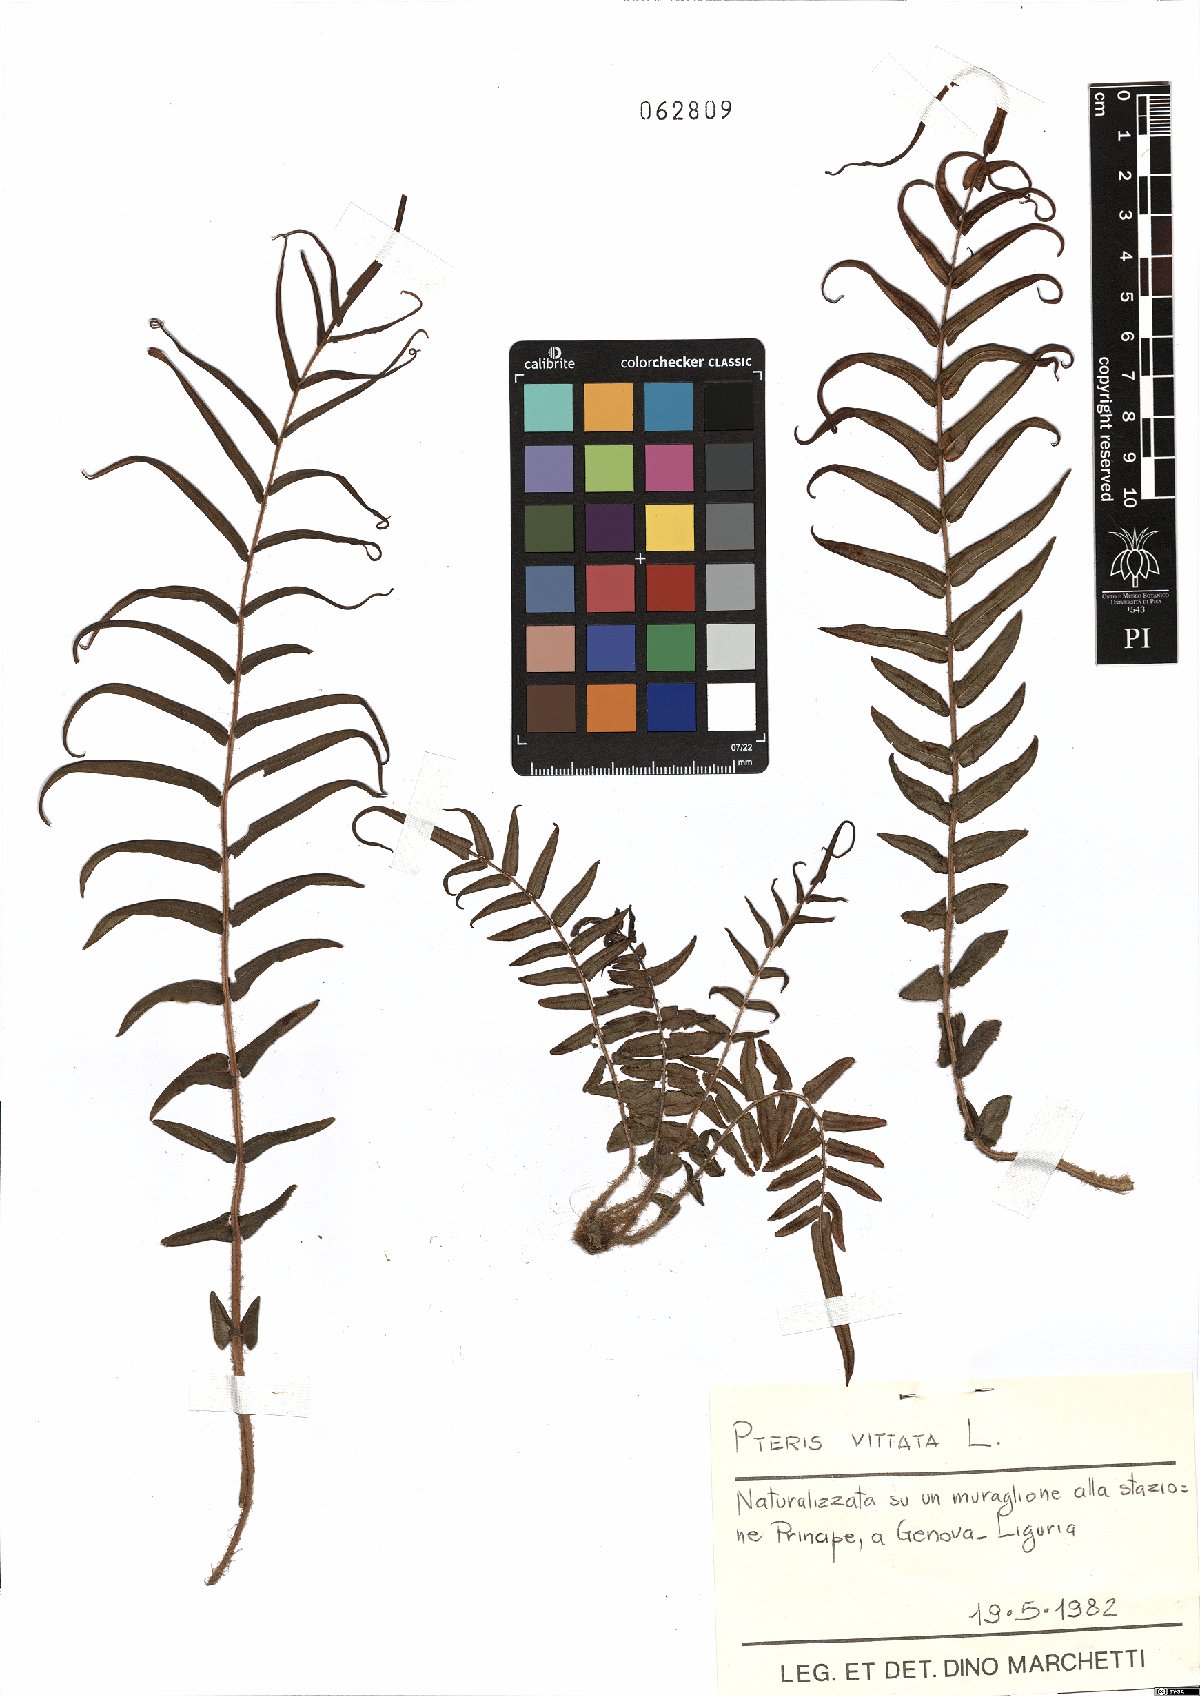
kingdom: Plantae
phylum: Tracheophyta
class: Polypodiopsida
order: Polypodiales
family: Pteridaceae
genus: Pteris
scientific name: Pteris vittata
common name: Ladder brake
